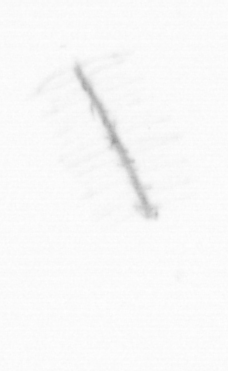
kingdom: Chromista
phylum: Ochrophyta
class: Bacillariophyceae
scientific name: Bacillariophyceae
